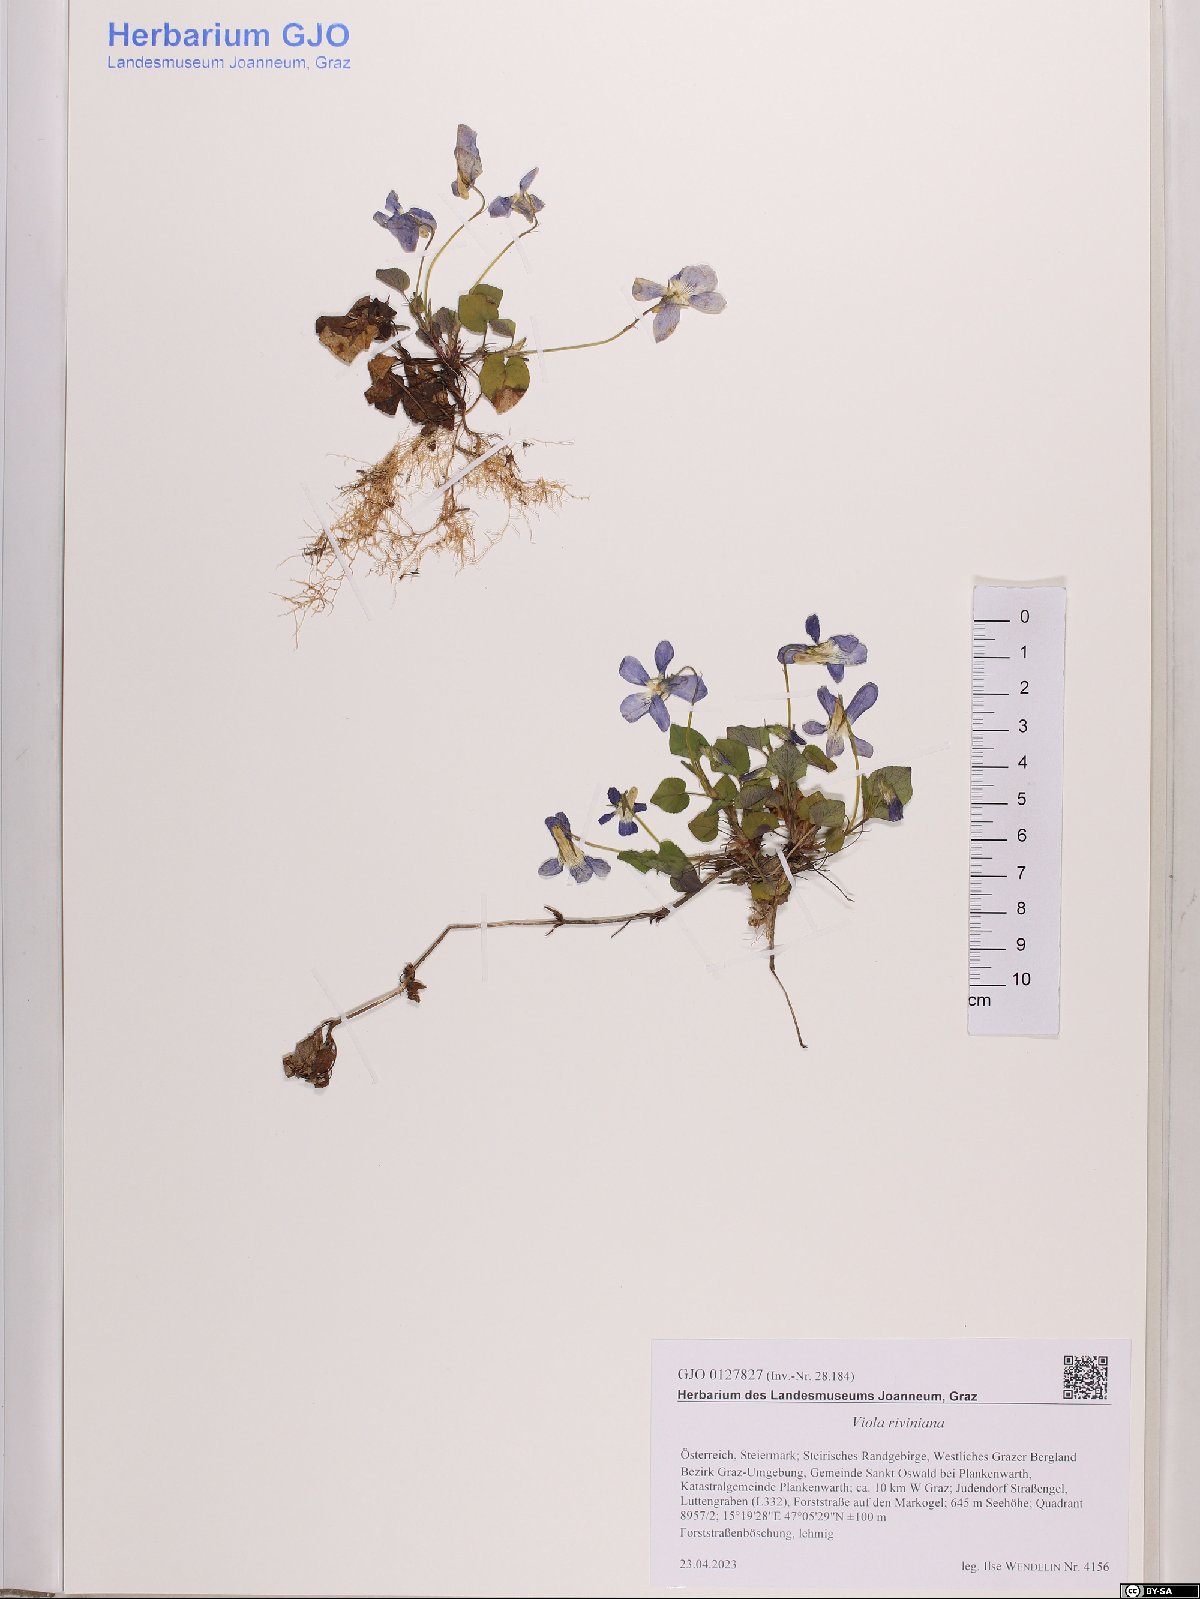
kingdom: Plantae
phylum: Tracheophyta
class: Magnoliopsida
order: Malpighiales
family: Violaceae
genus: Viola
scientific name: Viola riviniana
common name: Common dog-violet
